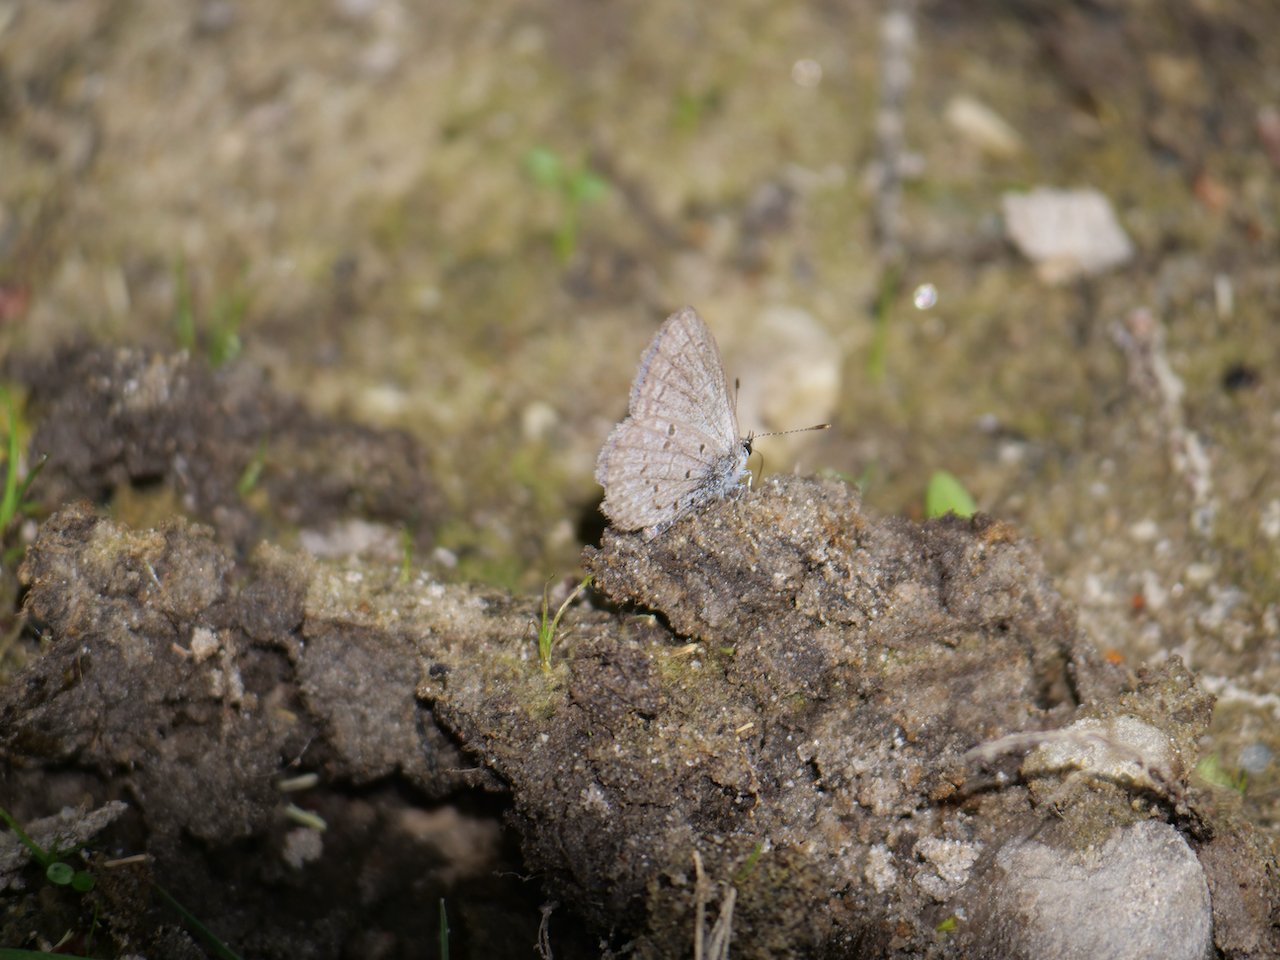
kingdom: Animalia
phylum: Arthropoda
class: Insecta
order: Lepidoptera
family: Lycaenidae
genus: Celastrina
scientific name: Celastrina lucia
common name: Northern Spring Azure
